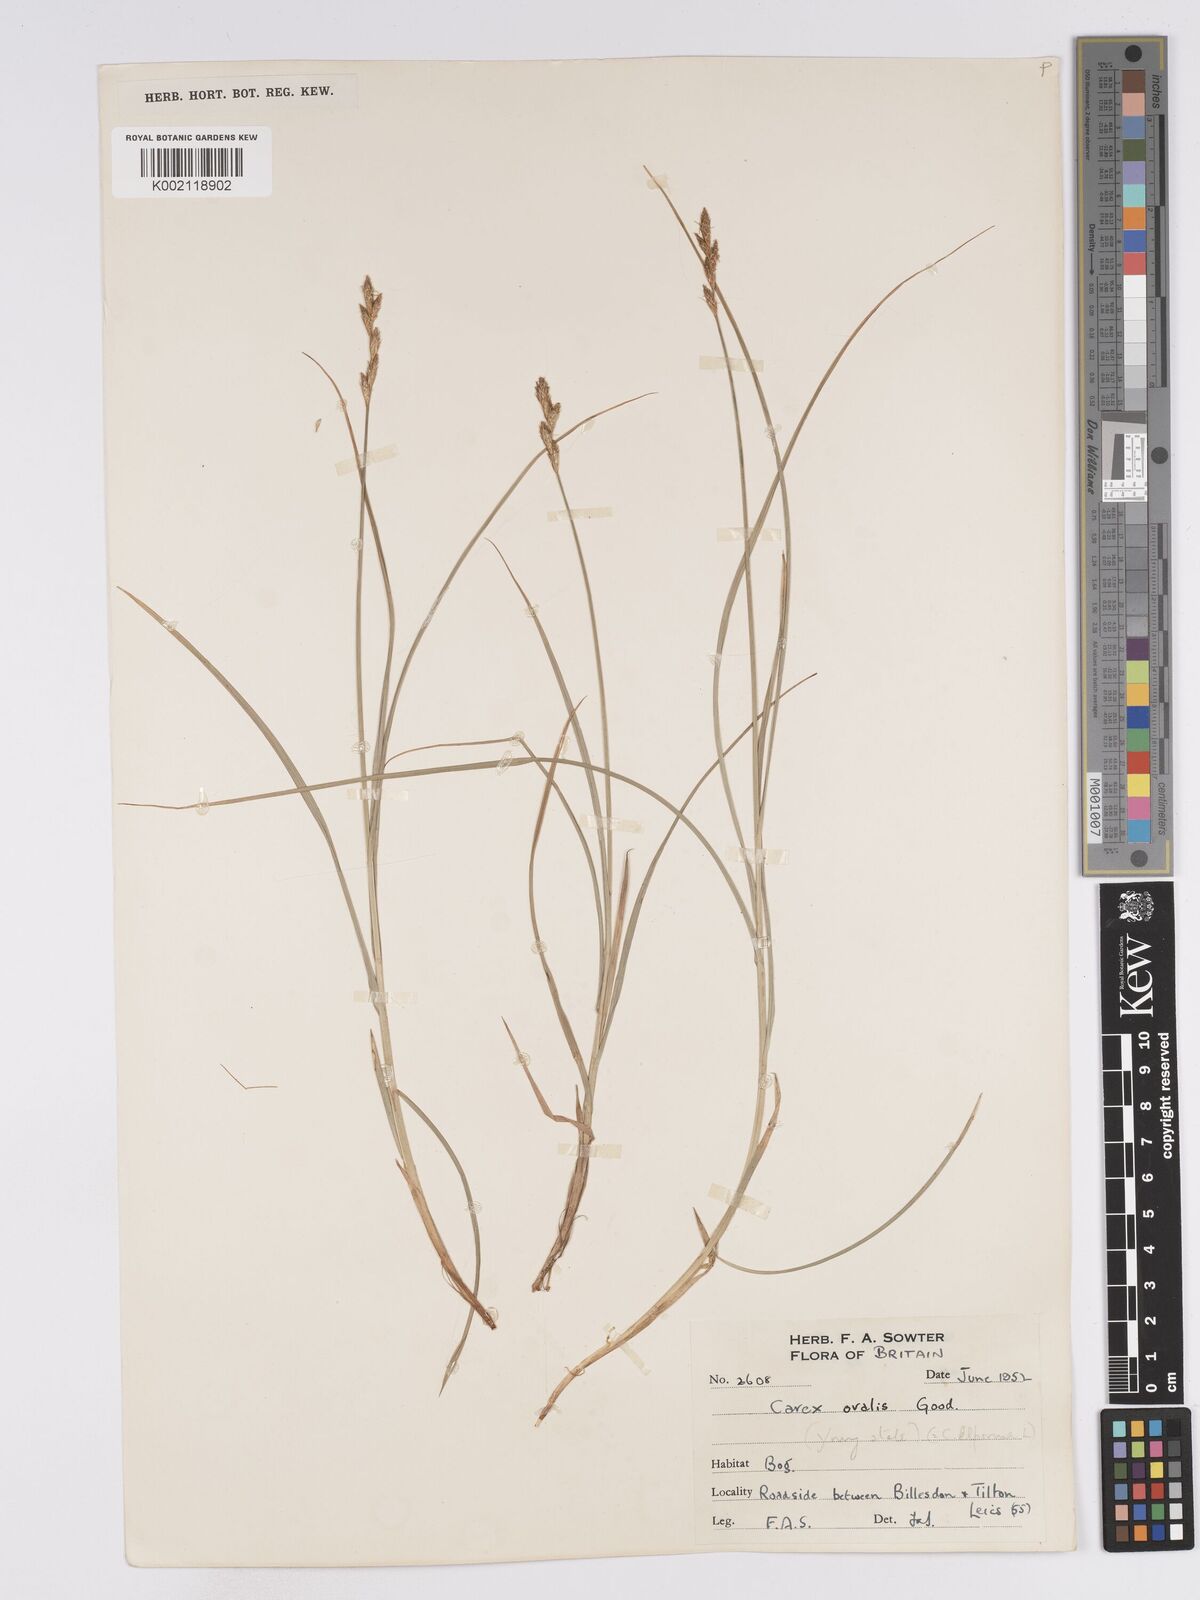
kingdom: Plantae
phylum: Tracheophyta
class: Liliopsida
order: Poales
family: Cyperaceae
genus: Carex
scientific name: Carex leporina
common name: Oval sedge
